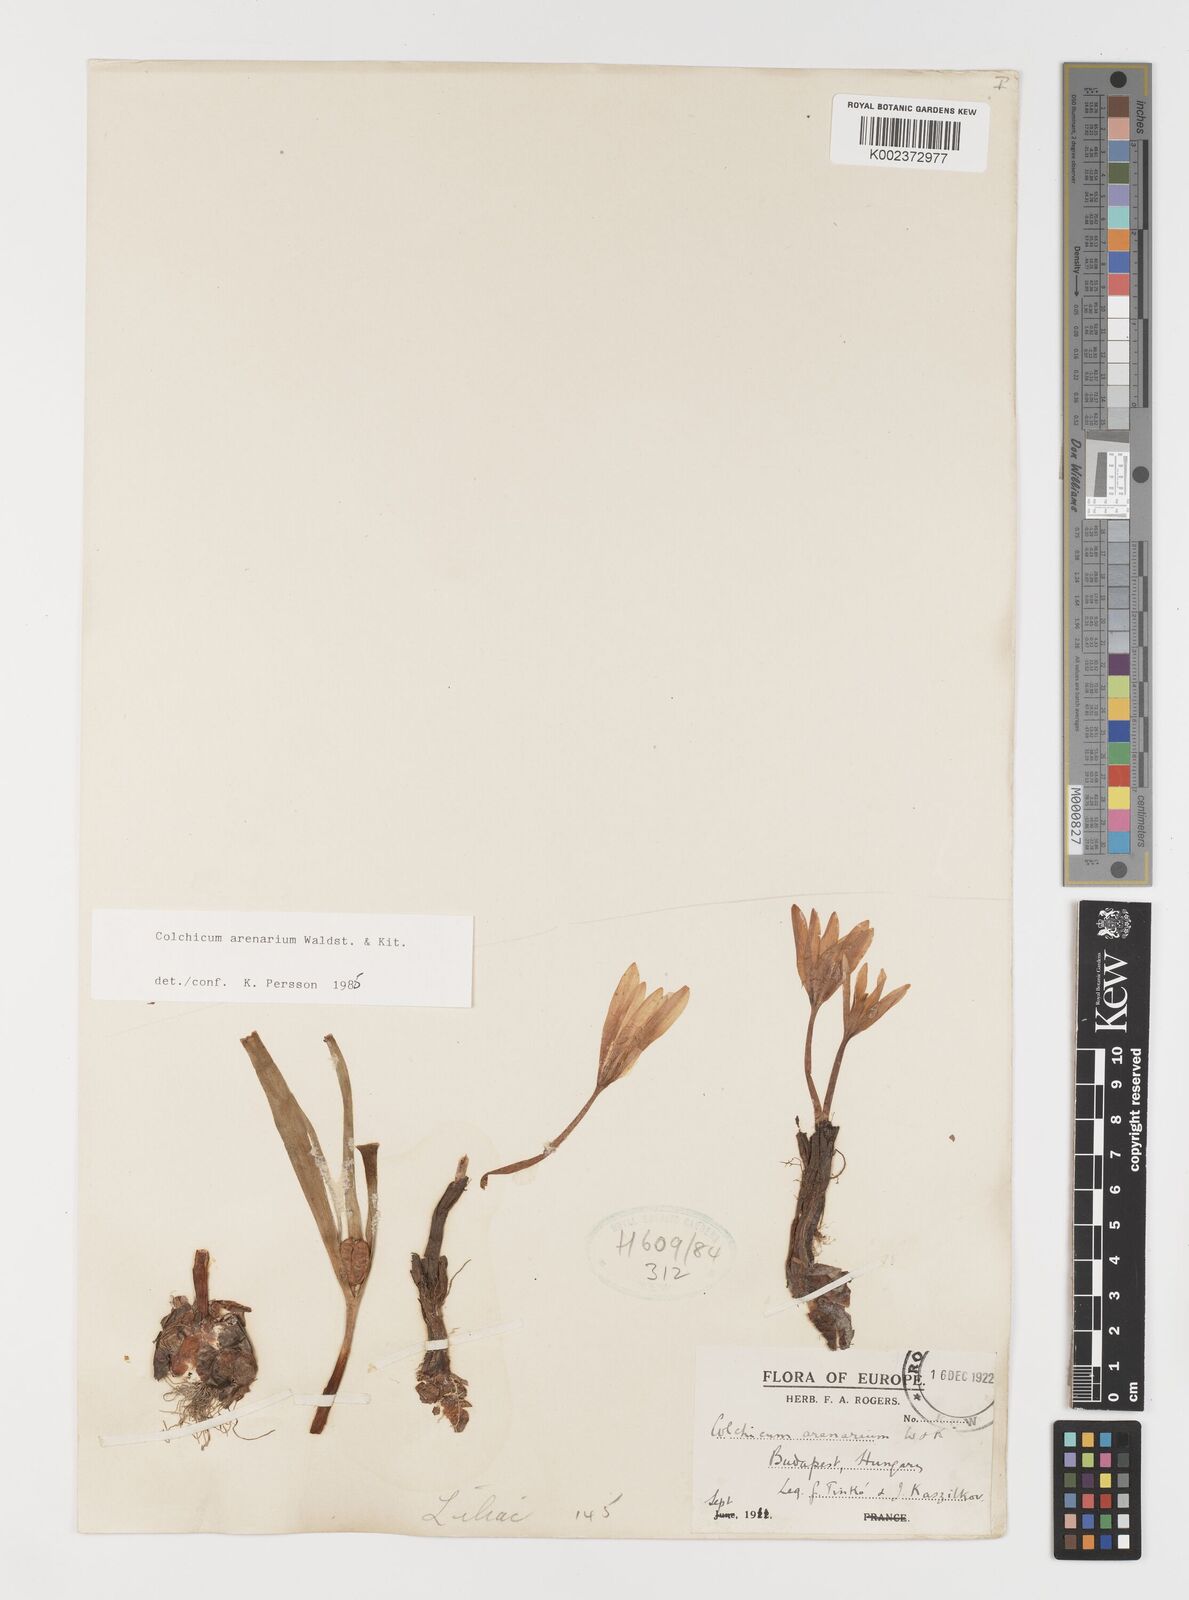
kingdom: Plantae
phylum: Tracheophyta
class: Liliopsida
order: Liliales
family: Colchicaceae
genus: Colchicum
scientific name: Colchicum arenarium
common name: Sand saffron
